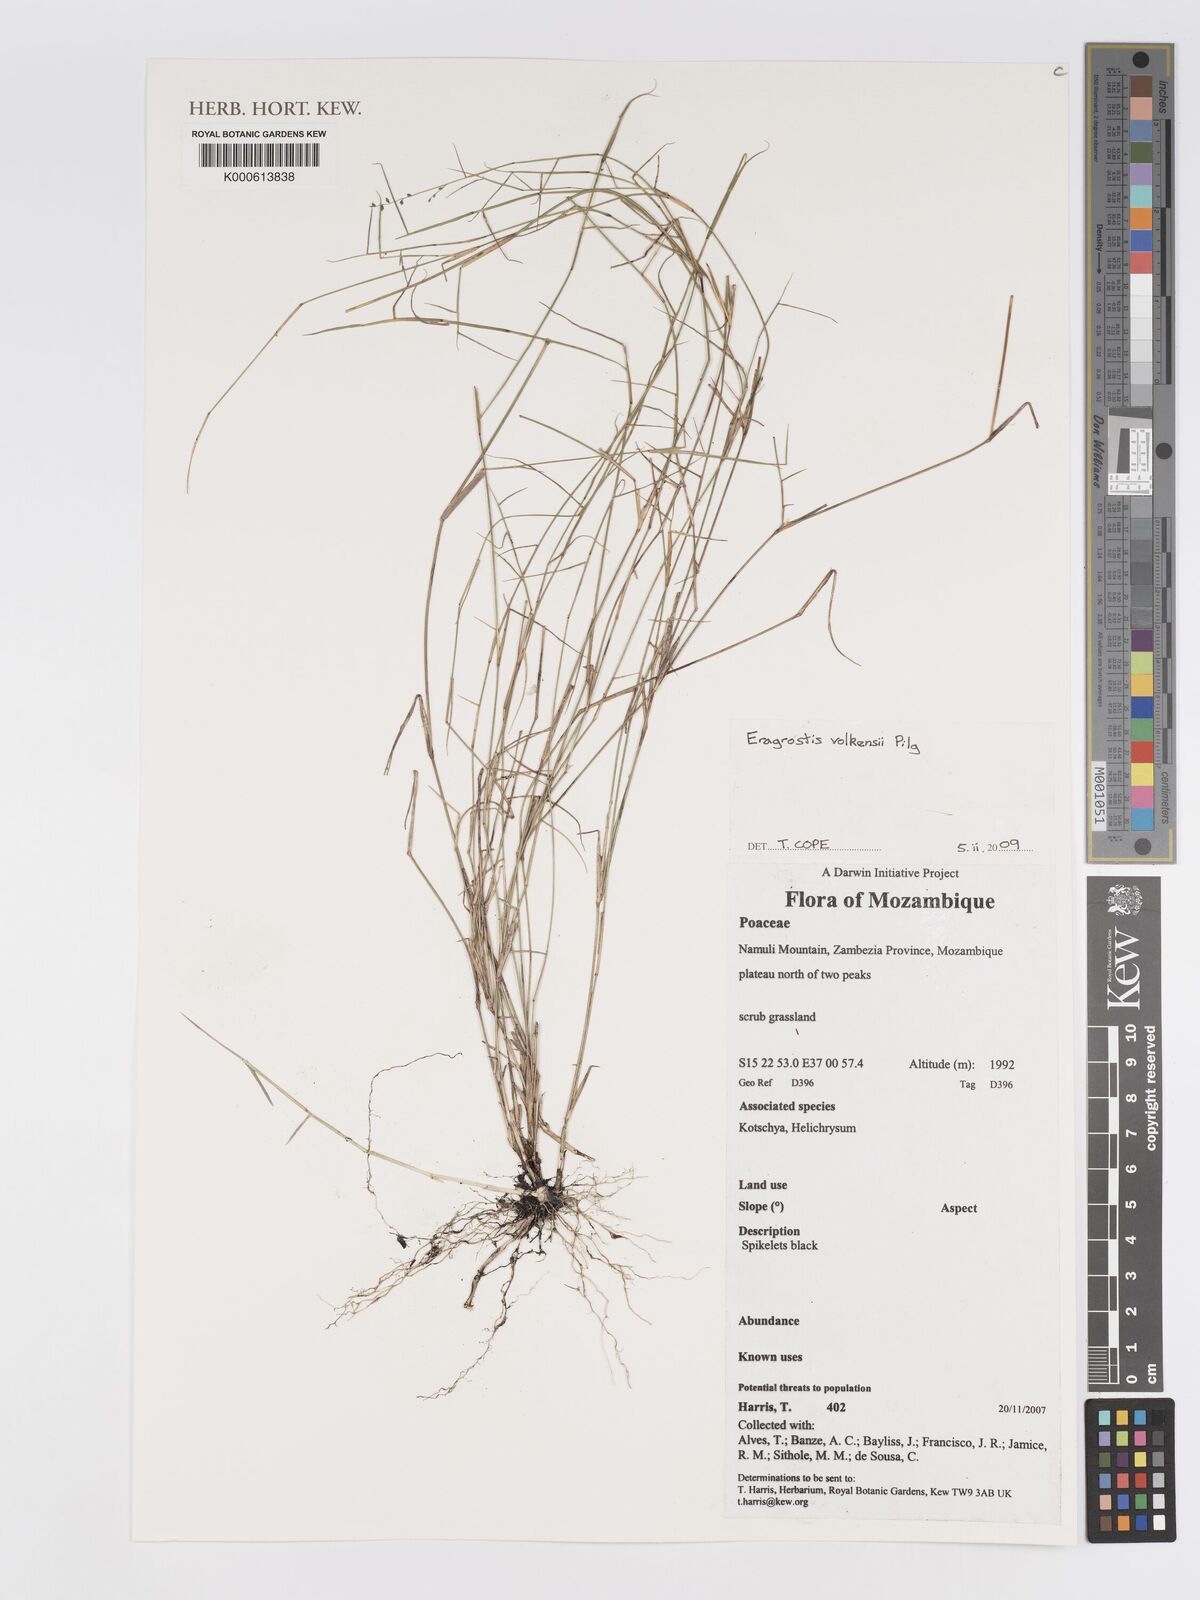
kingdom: Plantae
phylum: Tracheophyta
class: Liliopsida
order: Poales
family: Poaceae
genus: Eragrostis
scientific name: Eragrostis volkensii
